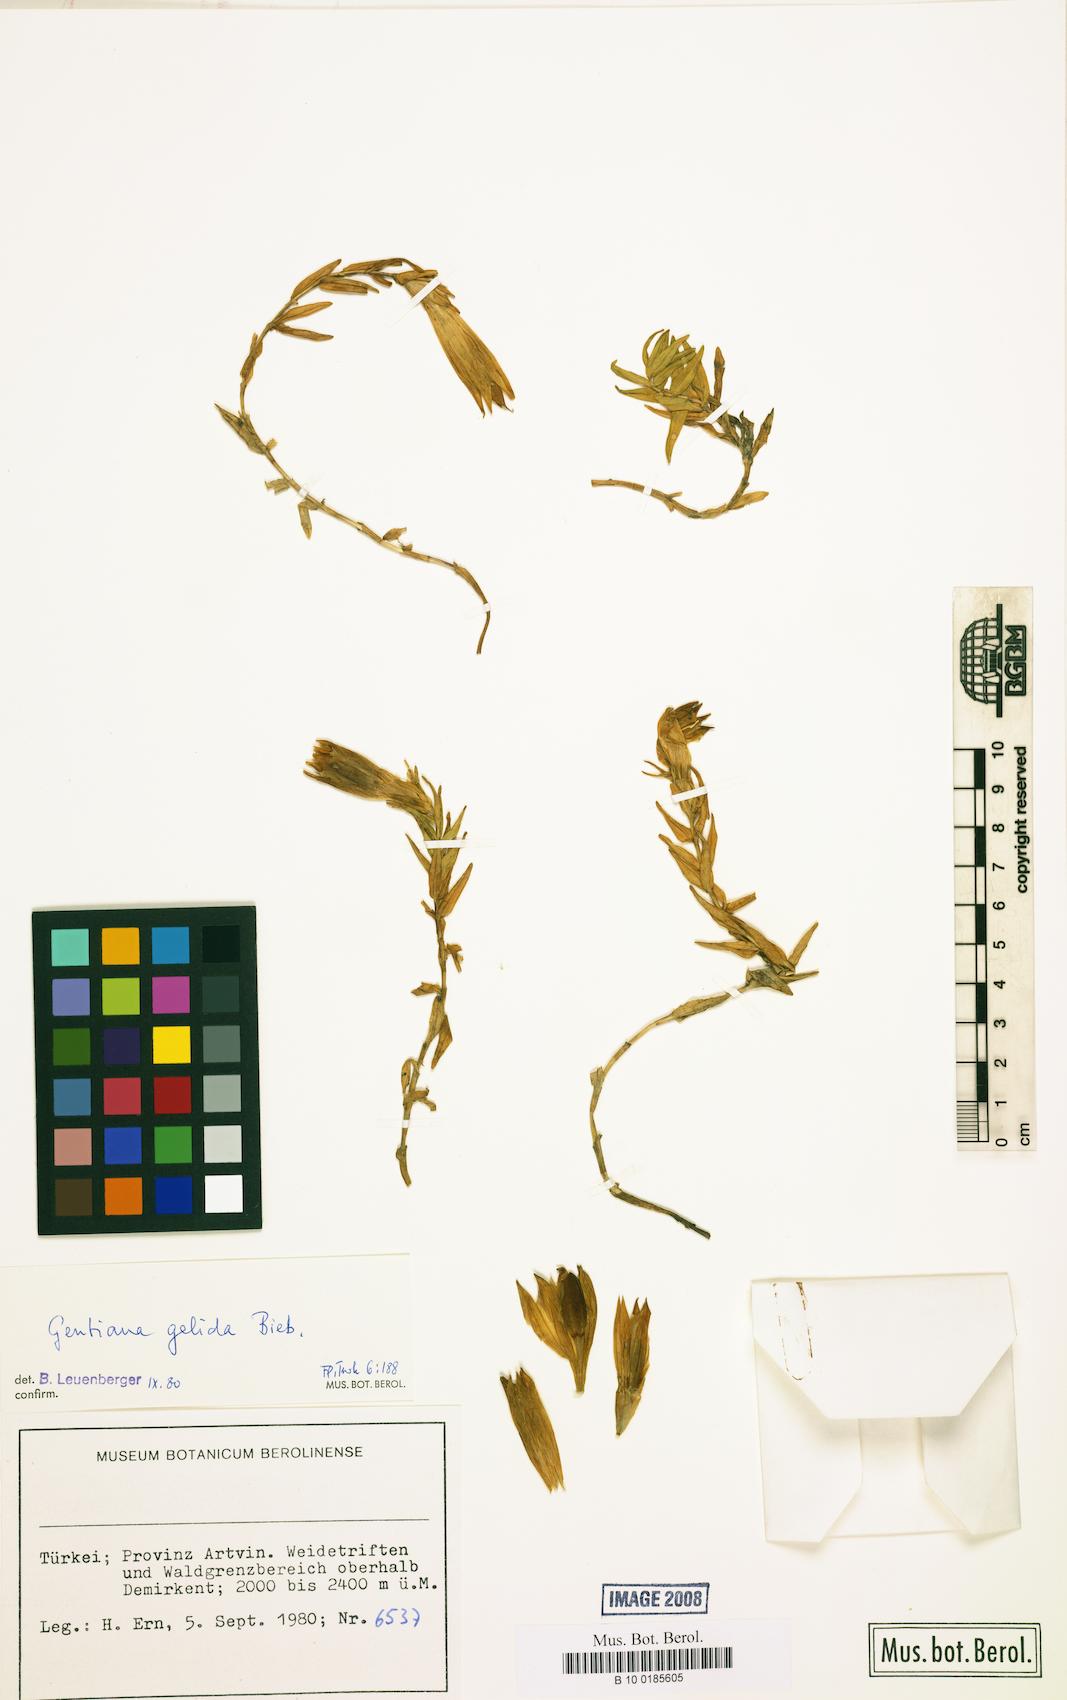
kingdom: Plantae
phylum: Tracheophyta
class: Magnoliopsida
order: Gentianales
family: Gentianaceae
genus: Gentiana
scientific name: Gentiana gelida
